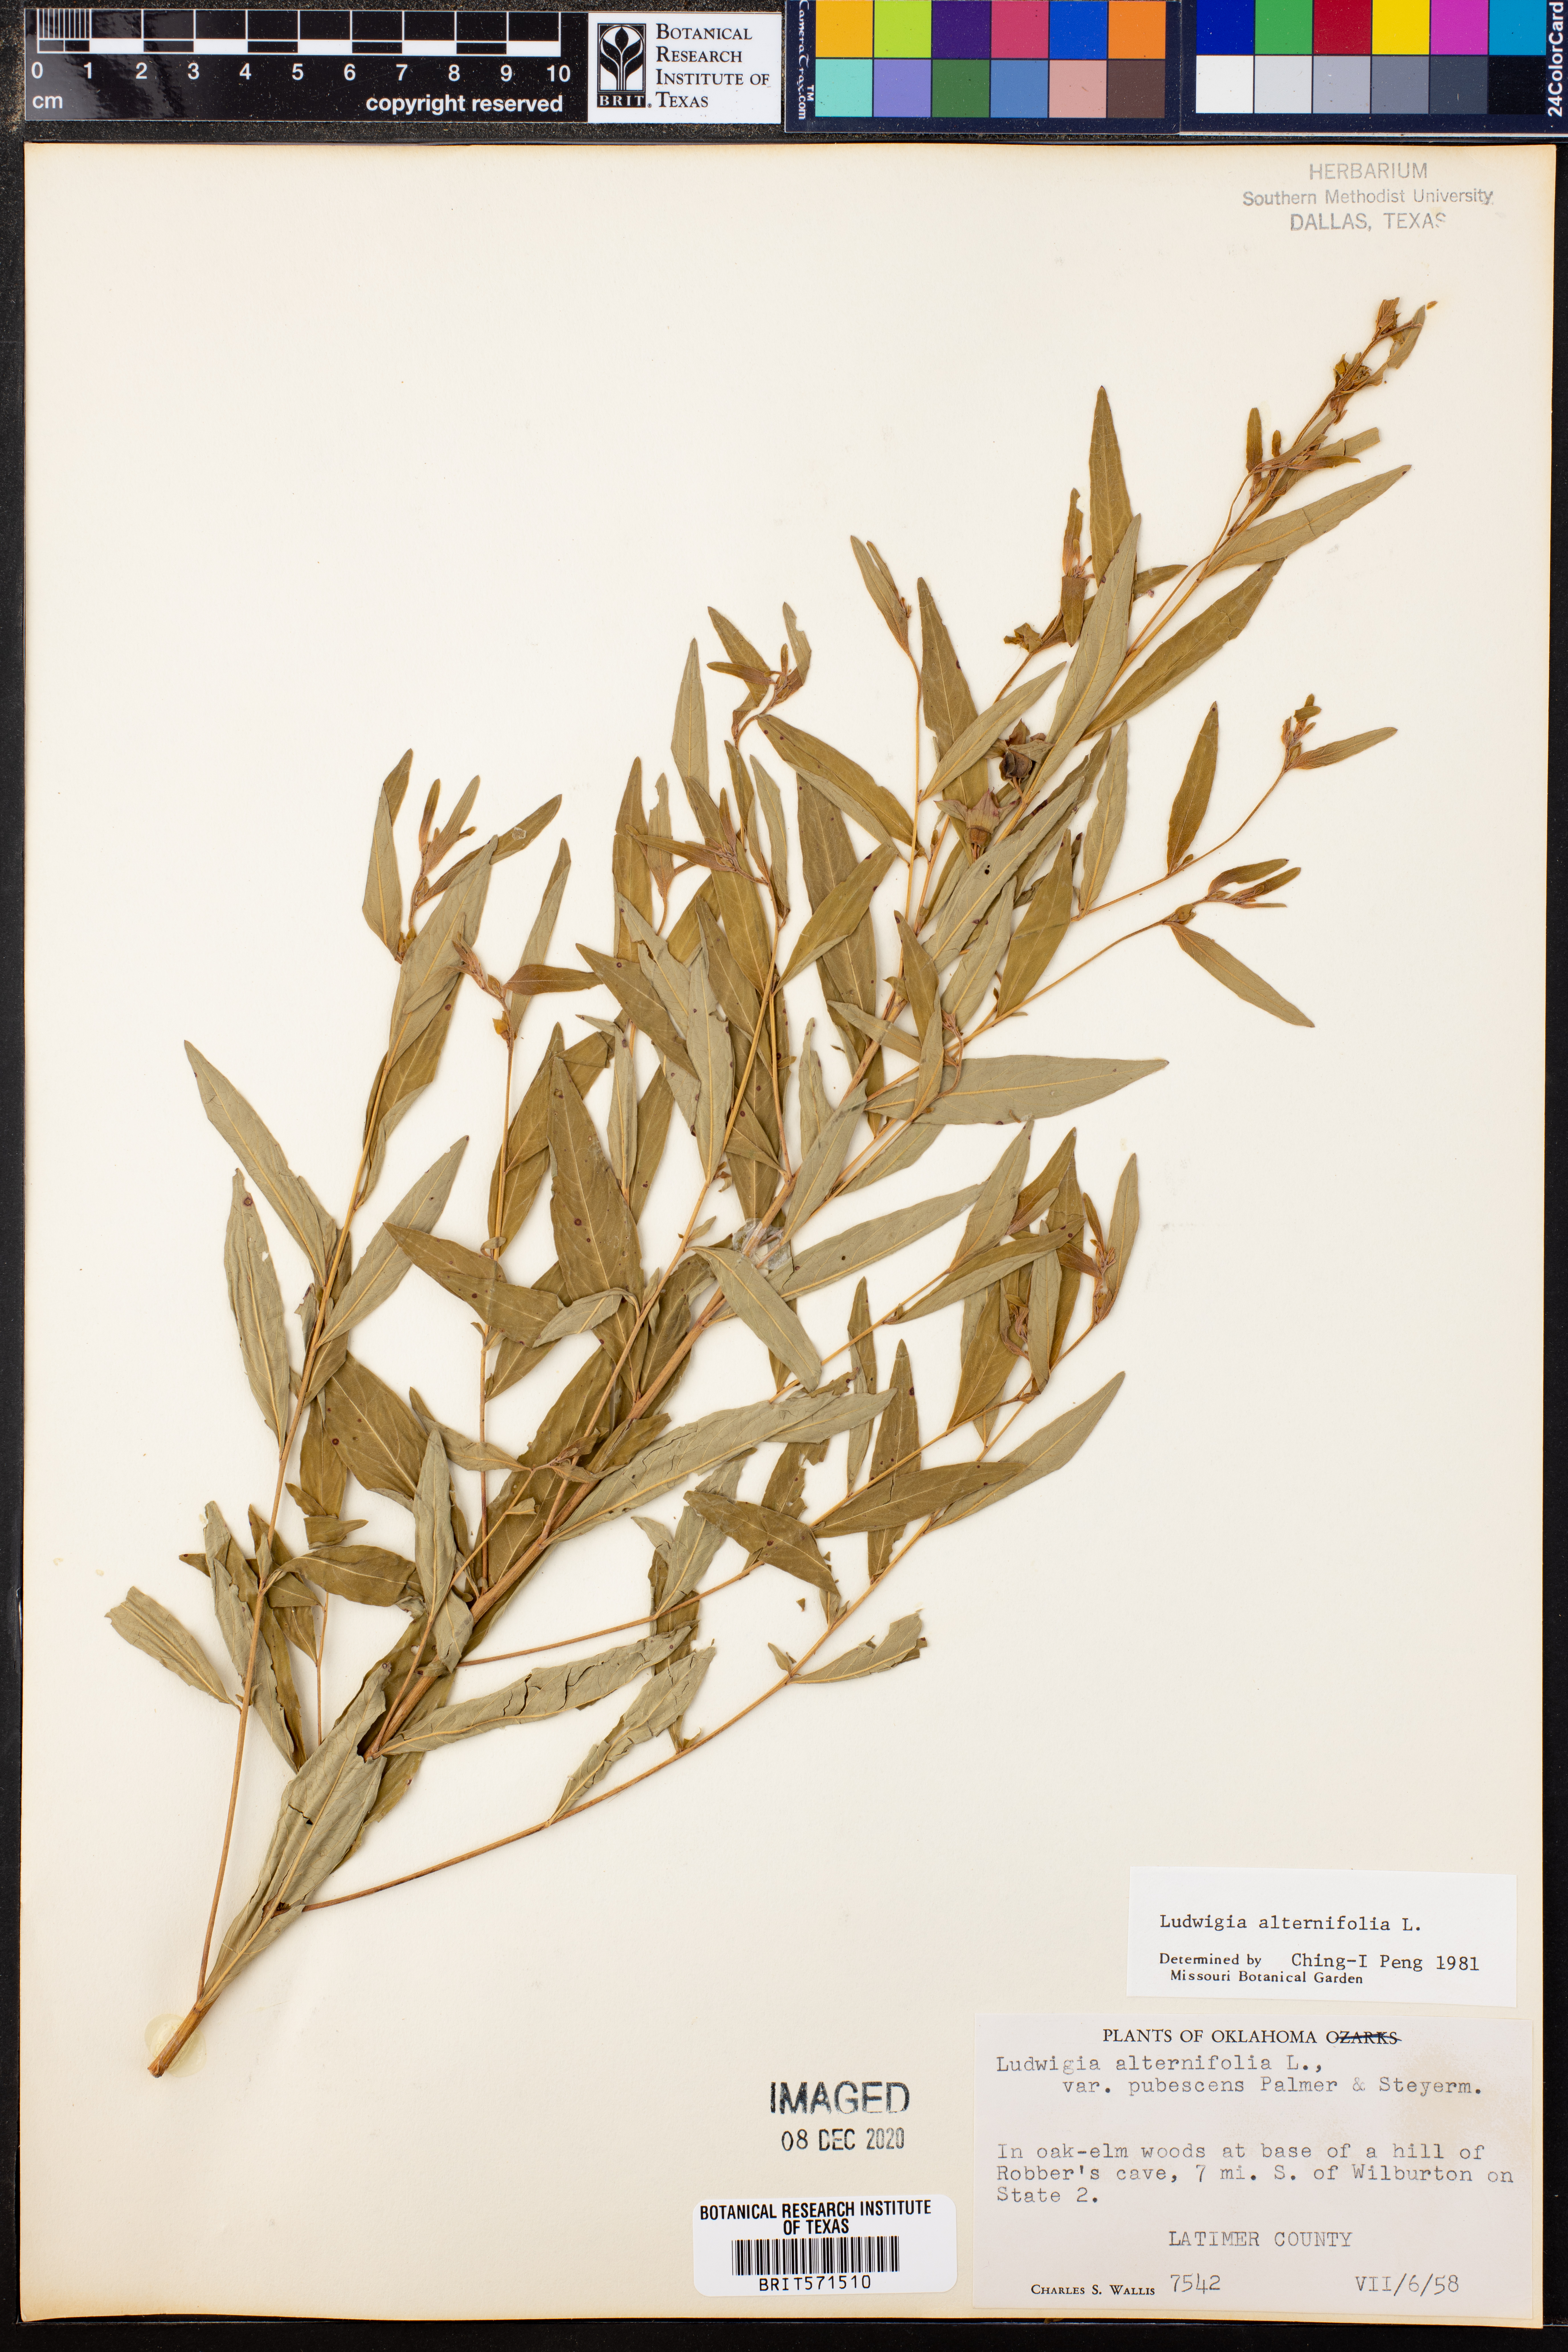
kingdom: Plantae
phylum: Tracheophyta
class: Magnoliopsida
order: Myrtales
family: Onagraceae
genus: Ludwigia
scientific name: Ludwigia alternifolia
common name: Rattlebox
